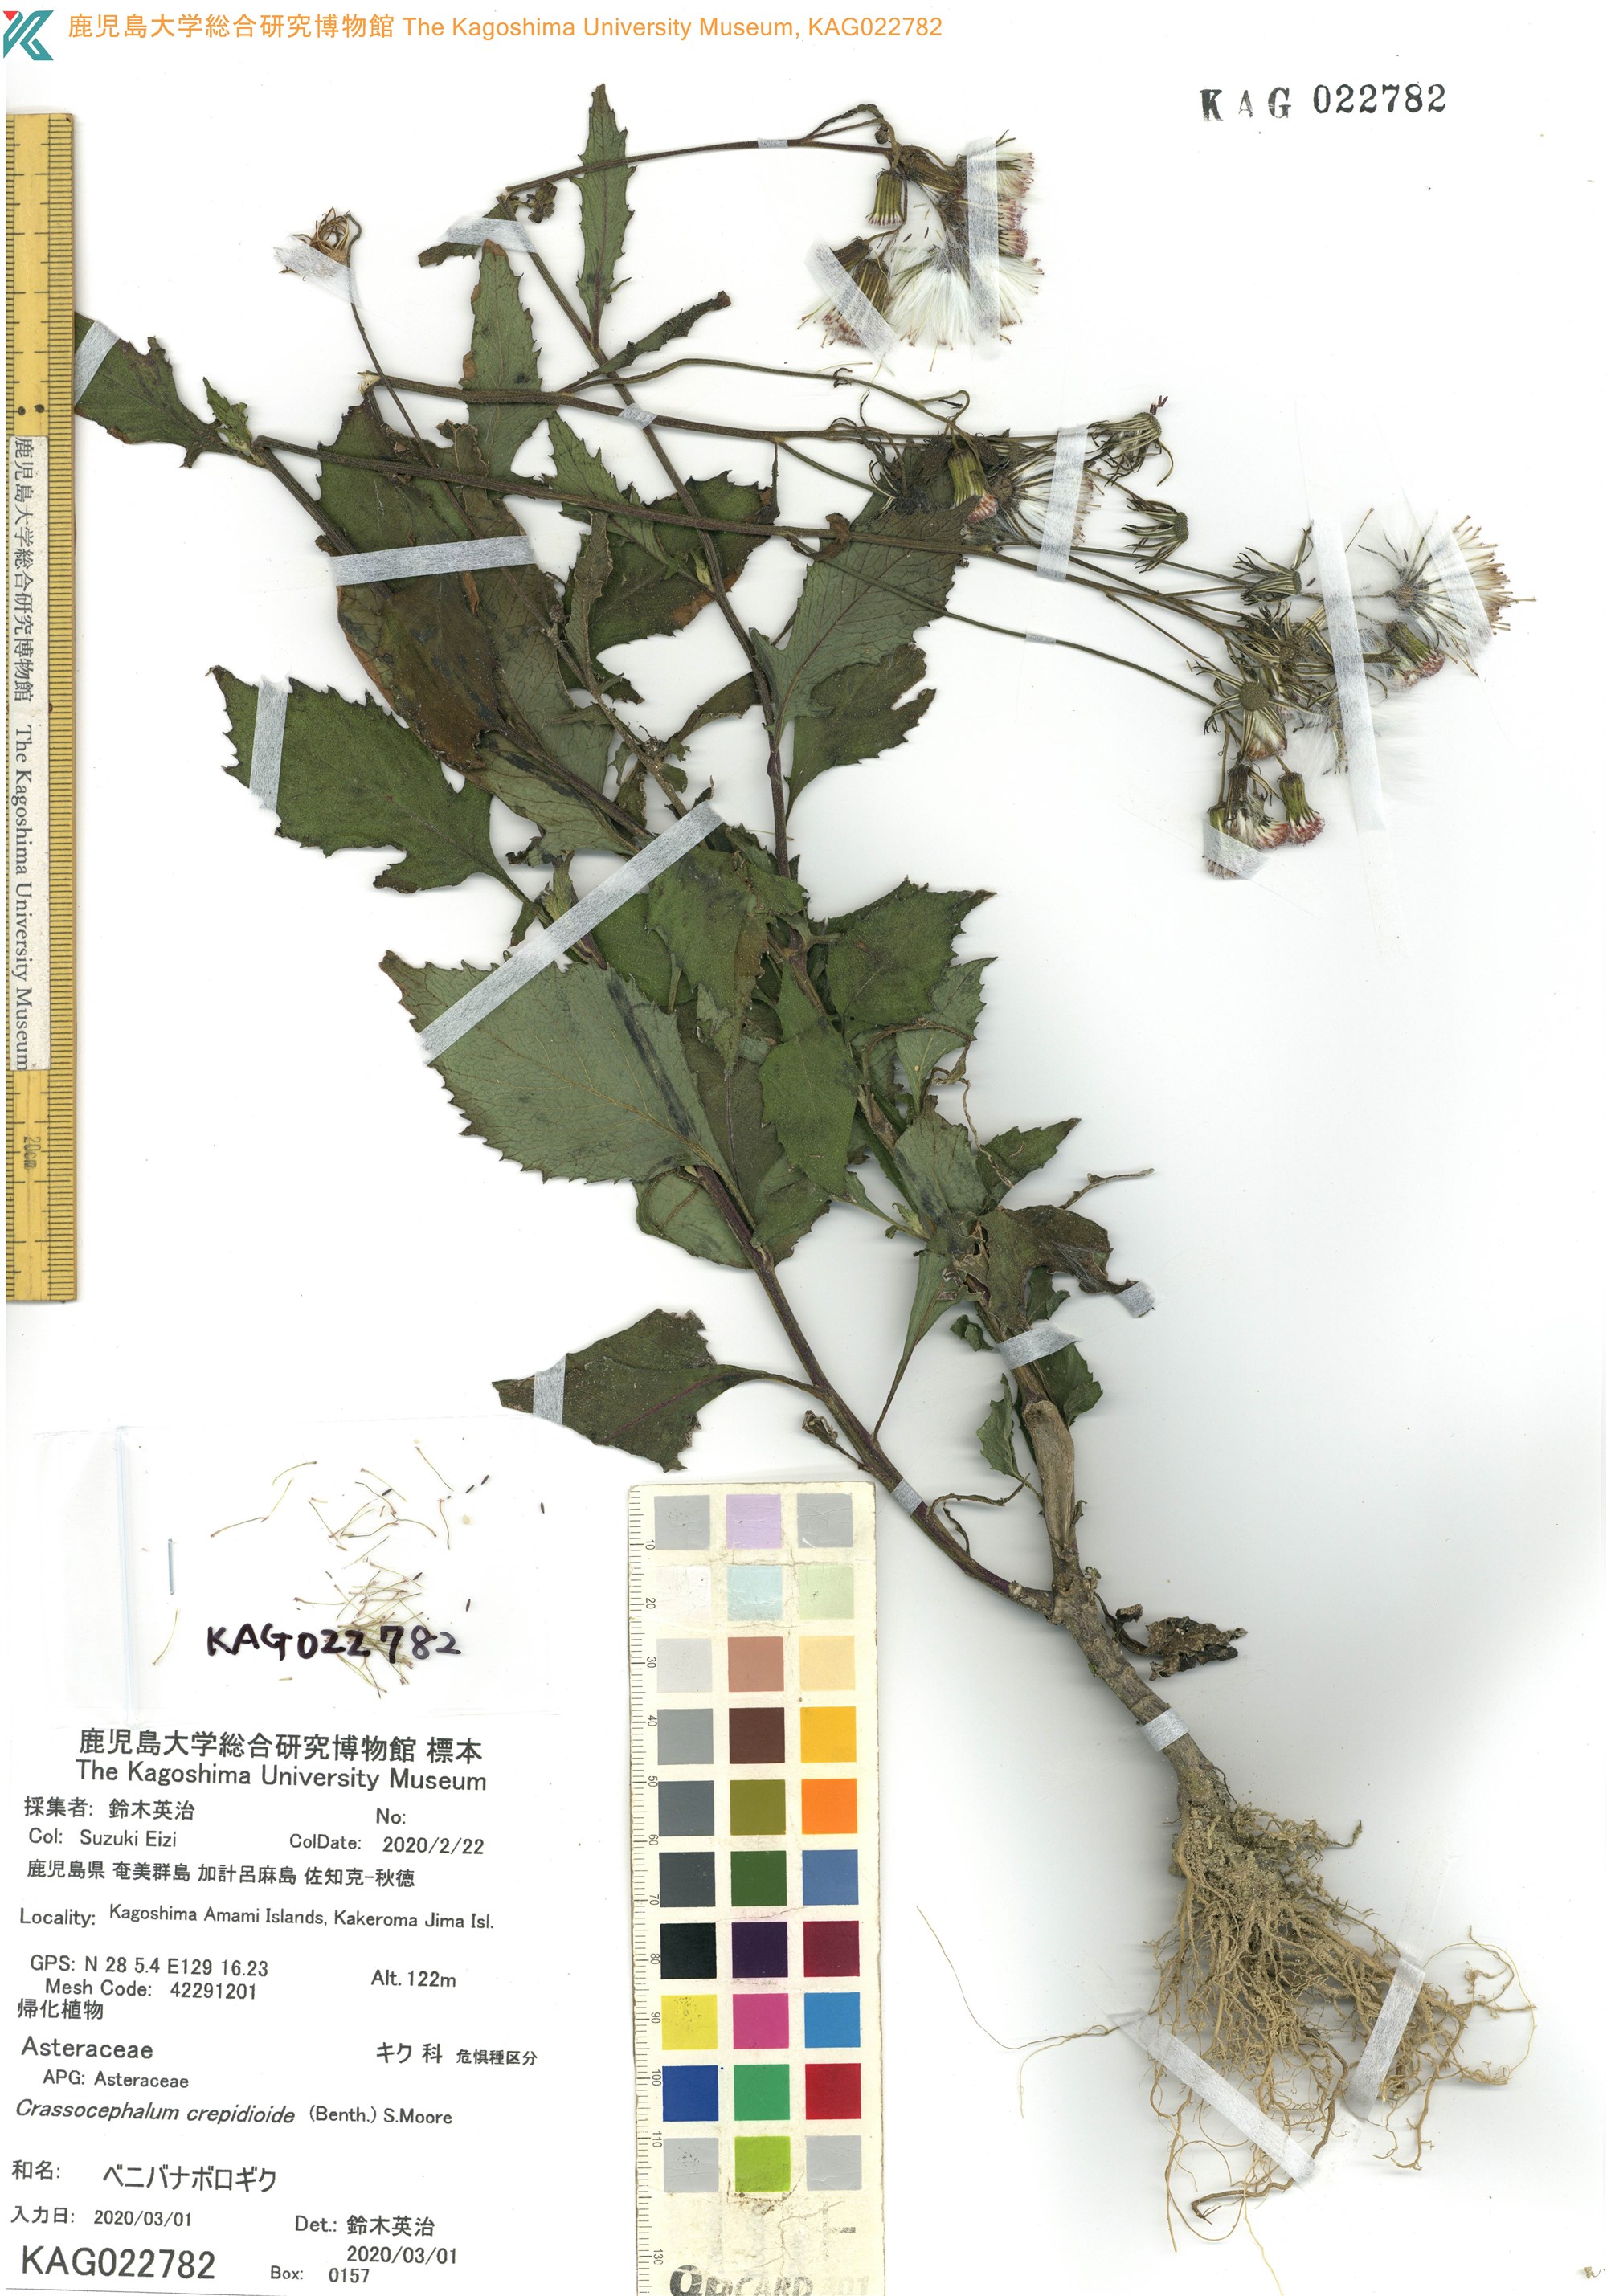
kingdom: Plantae
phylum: Tracheophyta
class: Magnoliopsida
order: Asterales
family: Asteraceae
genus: Crassocephalum
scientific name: Crassocephalum crepidioides
